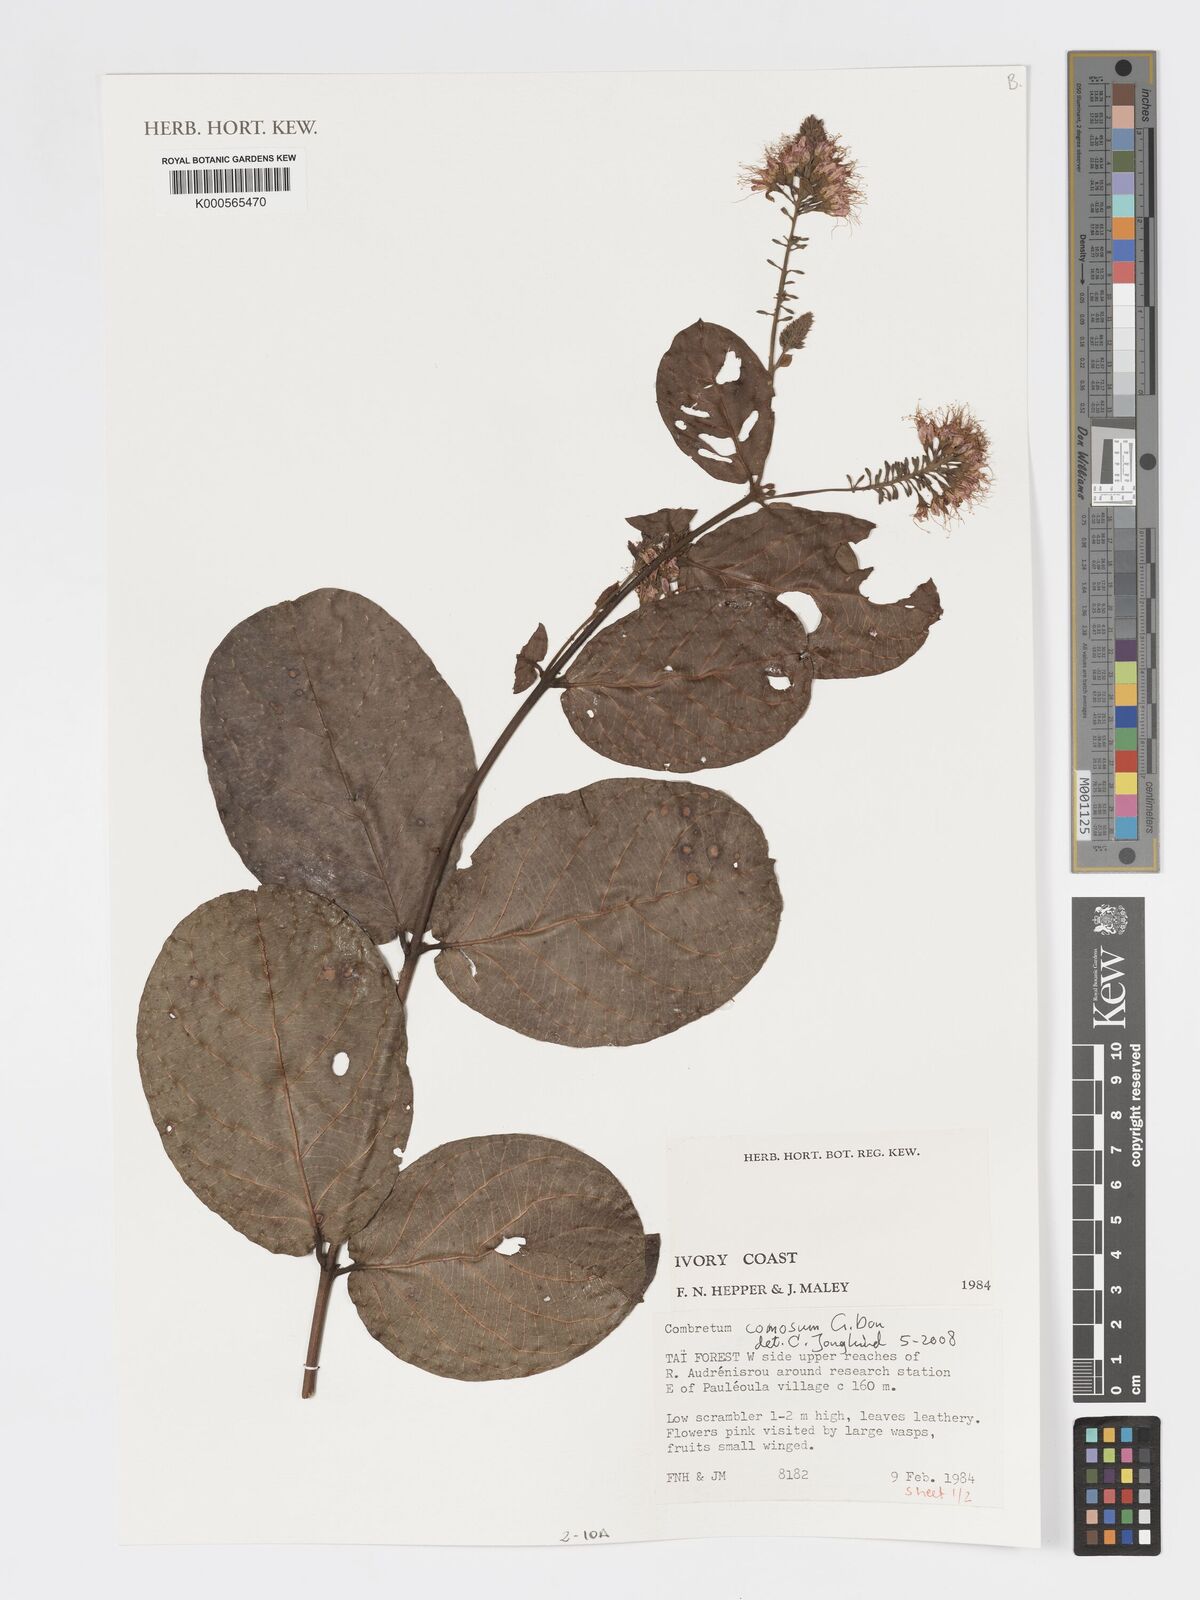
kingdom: Plantae
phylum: Tracheophyta
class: Magnoliopsida
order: Myrtales
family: Combretaceae
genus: Combretum
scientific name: Combretum comosum
